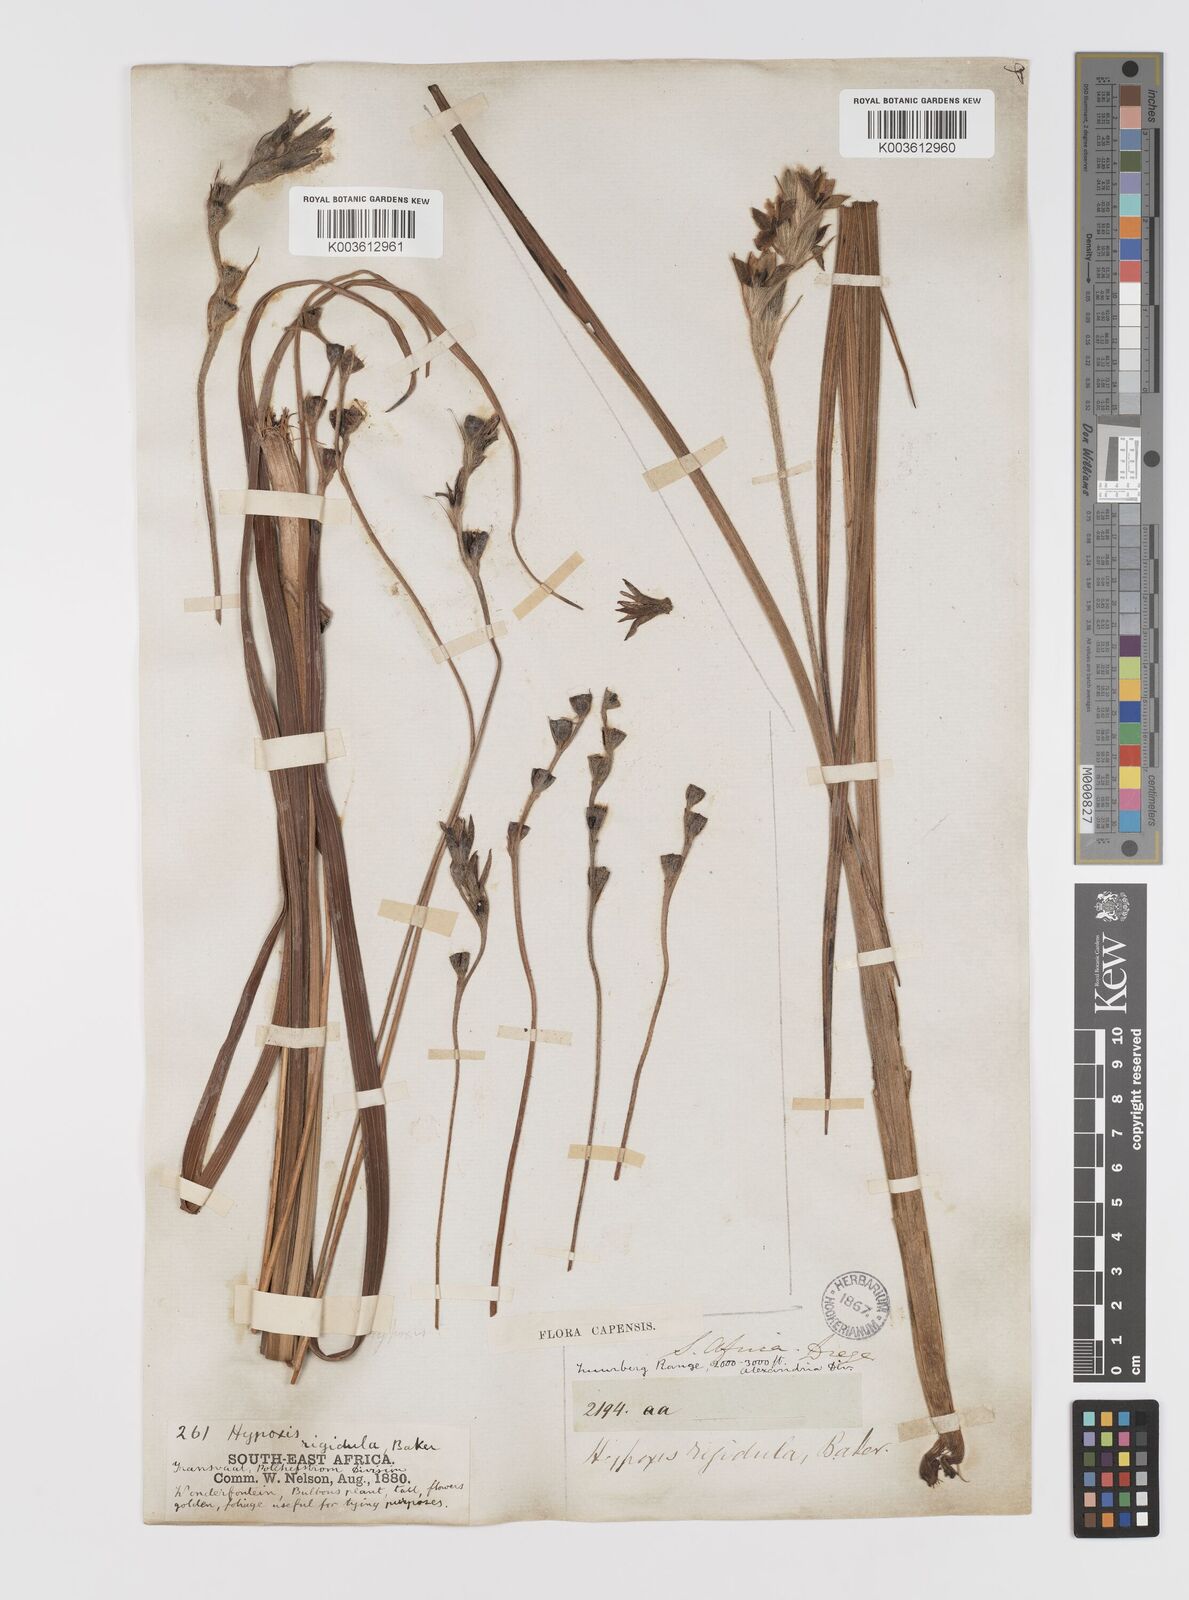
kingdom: Plantae
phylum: Tracheophyta
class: Liliopsida
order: Asparagales
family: Hypoxidaceae
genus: Hypoxis
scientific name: Hypoxis rigidula
